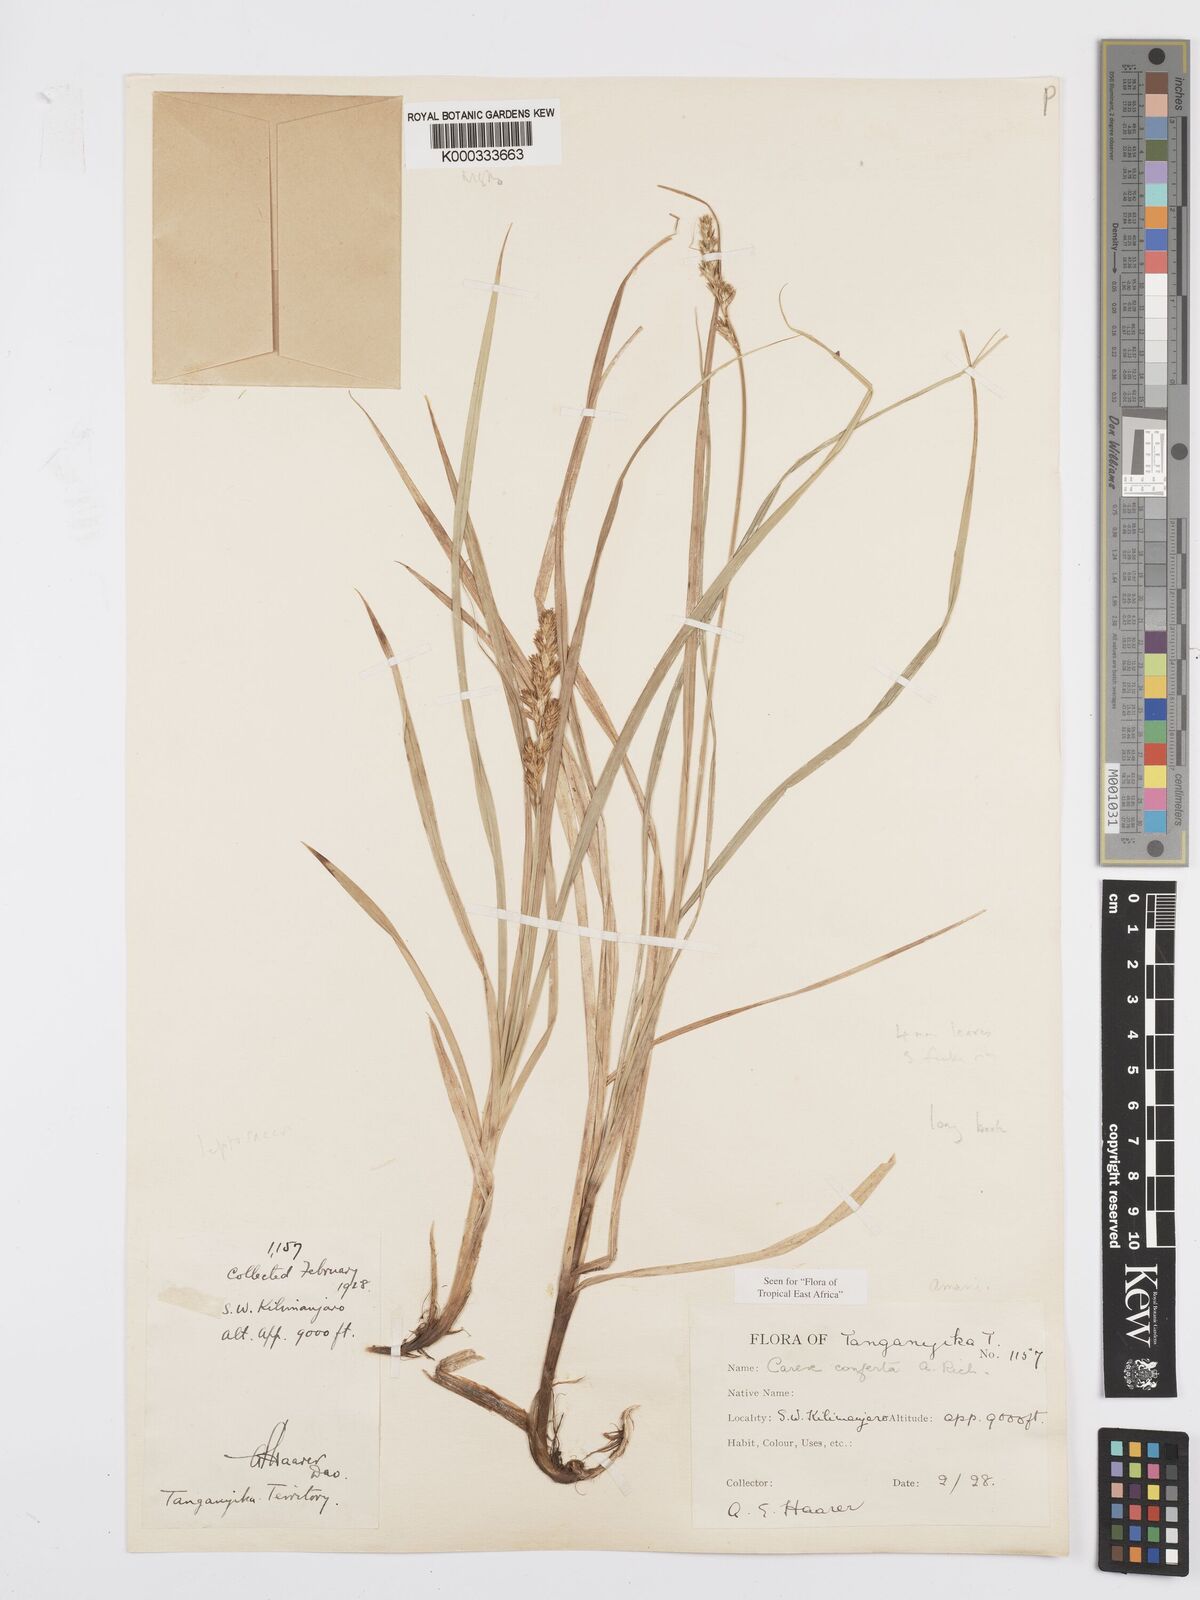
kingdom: Plantae
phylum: Tracheophyta
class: Liliopsida
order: Poales
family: Cyperaceae
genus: Carex
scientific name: Carex conferta
